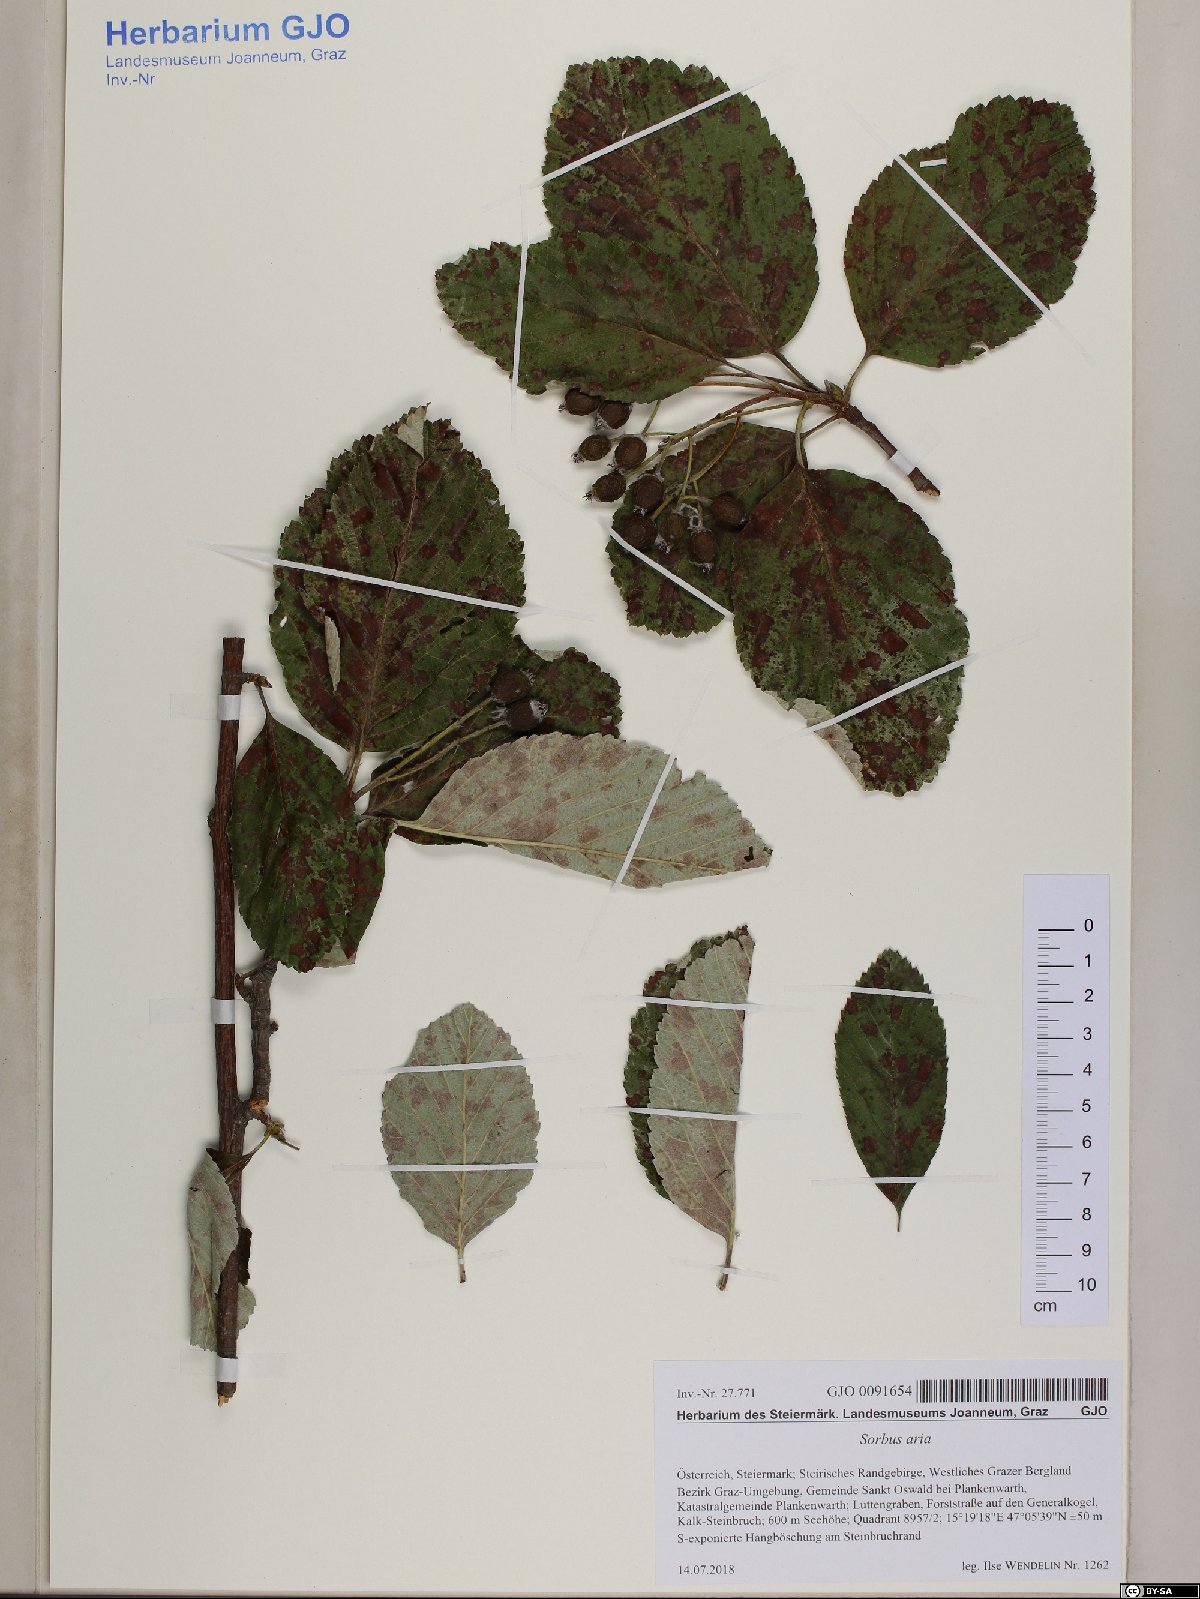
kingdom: Plantae
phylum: Tracheophyta
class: Magnoliopsida
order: Rosales
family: Rosaceae
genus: Aria
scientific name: Aria edulis
